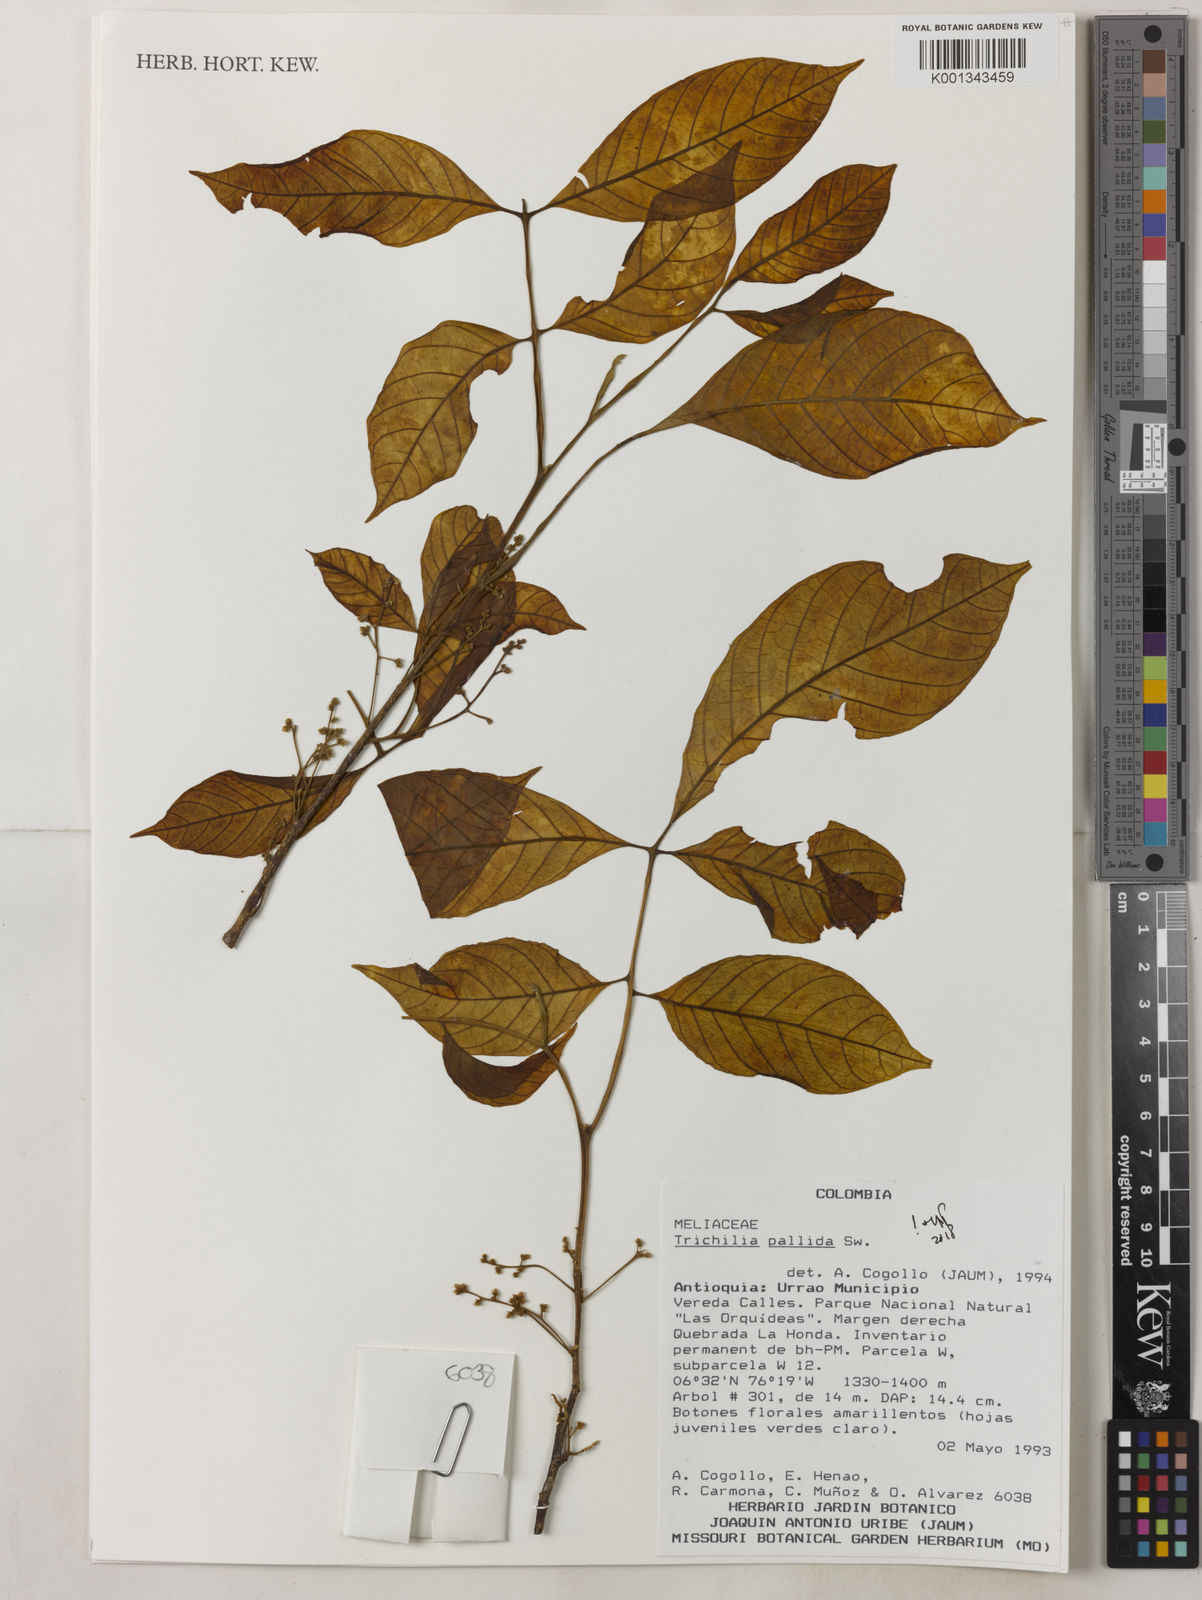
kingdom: Plantae
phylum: Tracheophyta
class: Magnoliopsida
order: Sapindales
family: Meliaceae
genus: Trichilia
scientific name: Trichilia pallida
